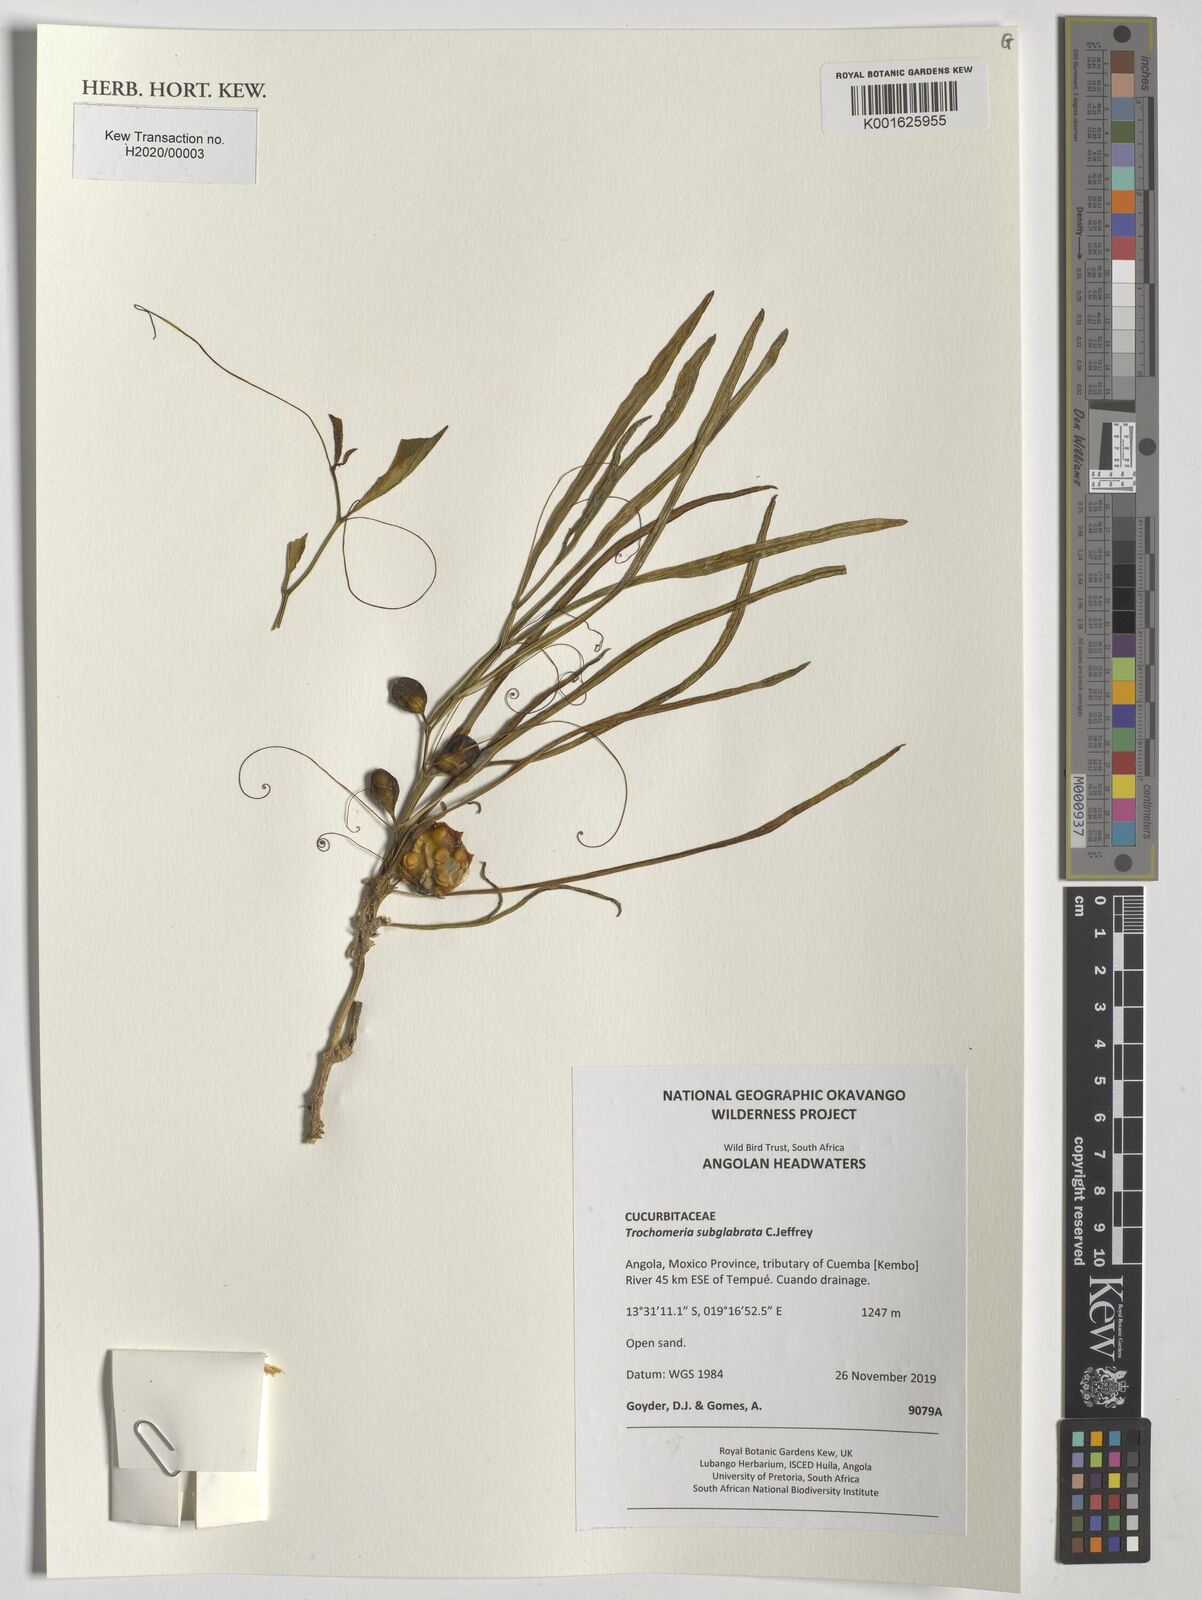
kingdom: Plantae
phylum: Tracheophyta
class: Magnoliopsida
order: Cucurbitales
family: Cucurbitaceae
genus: Trochomeria
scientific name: Trochomeria subglabra
